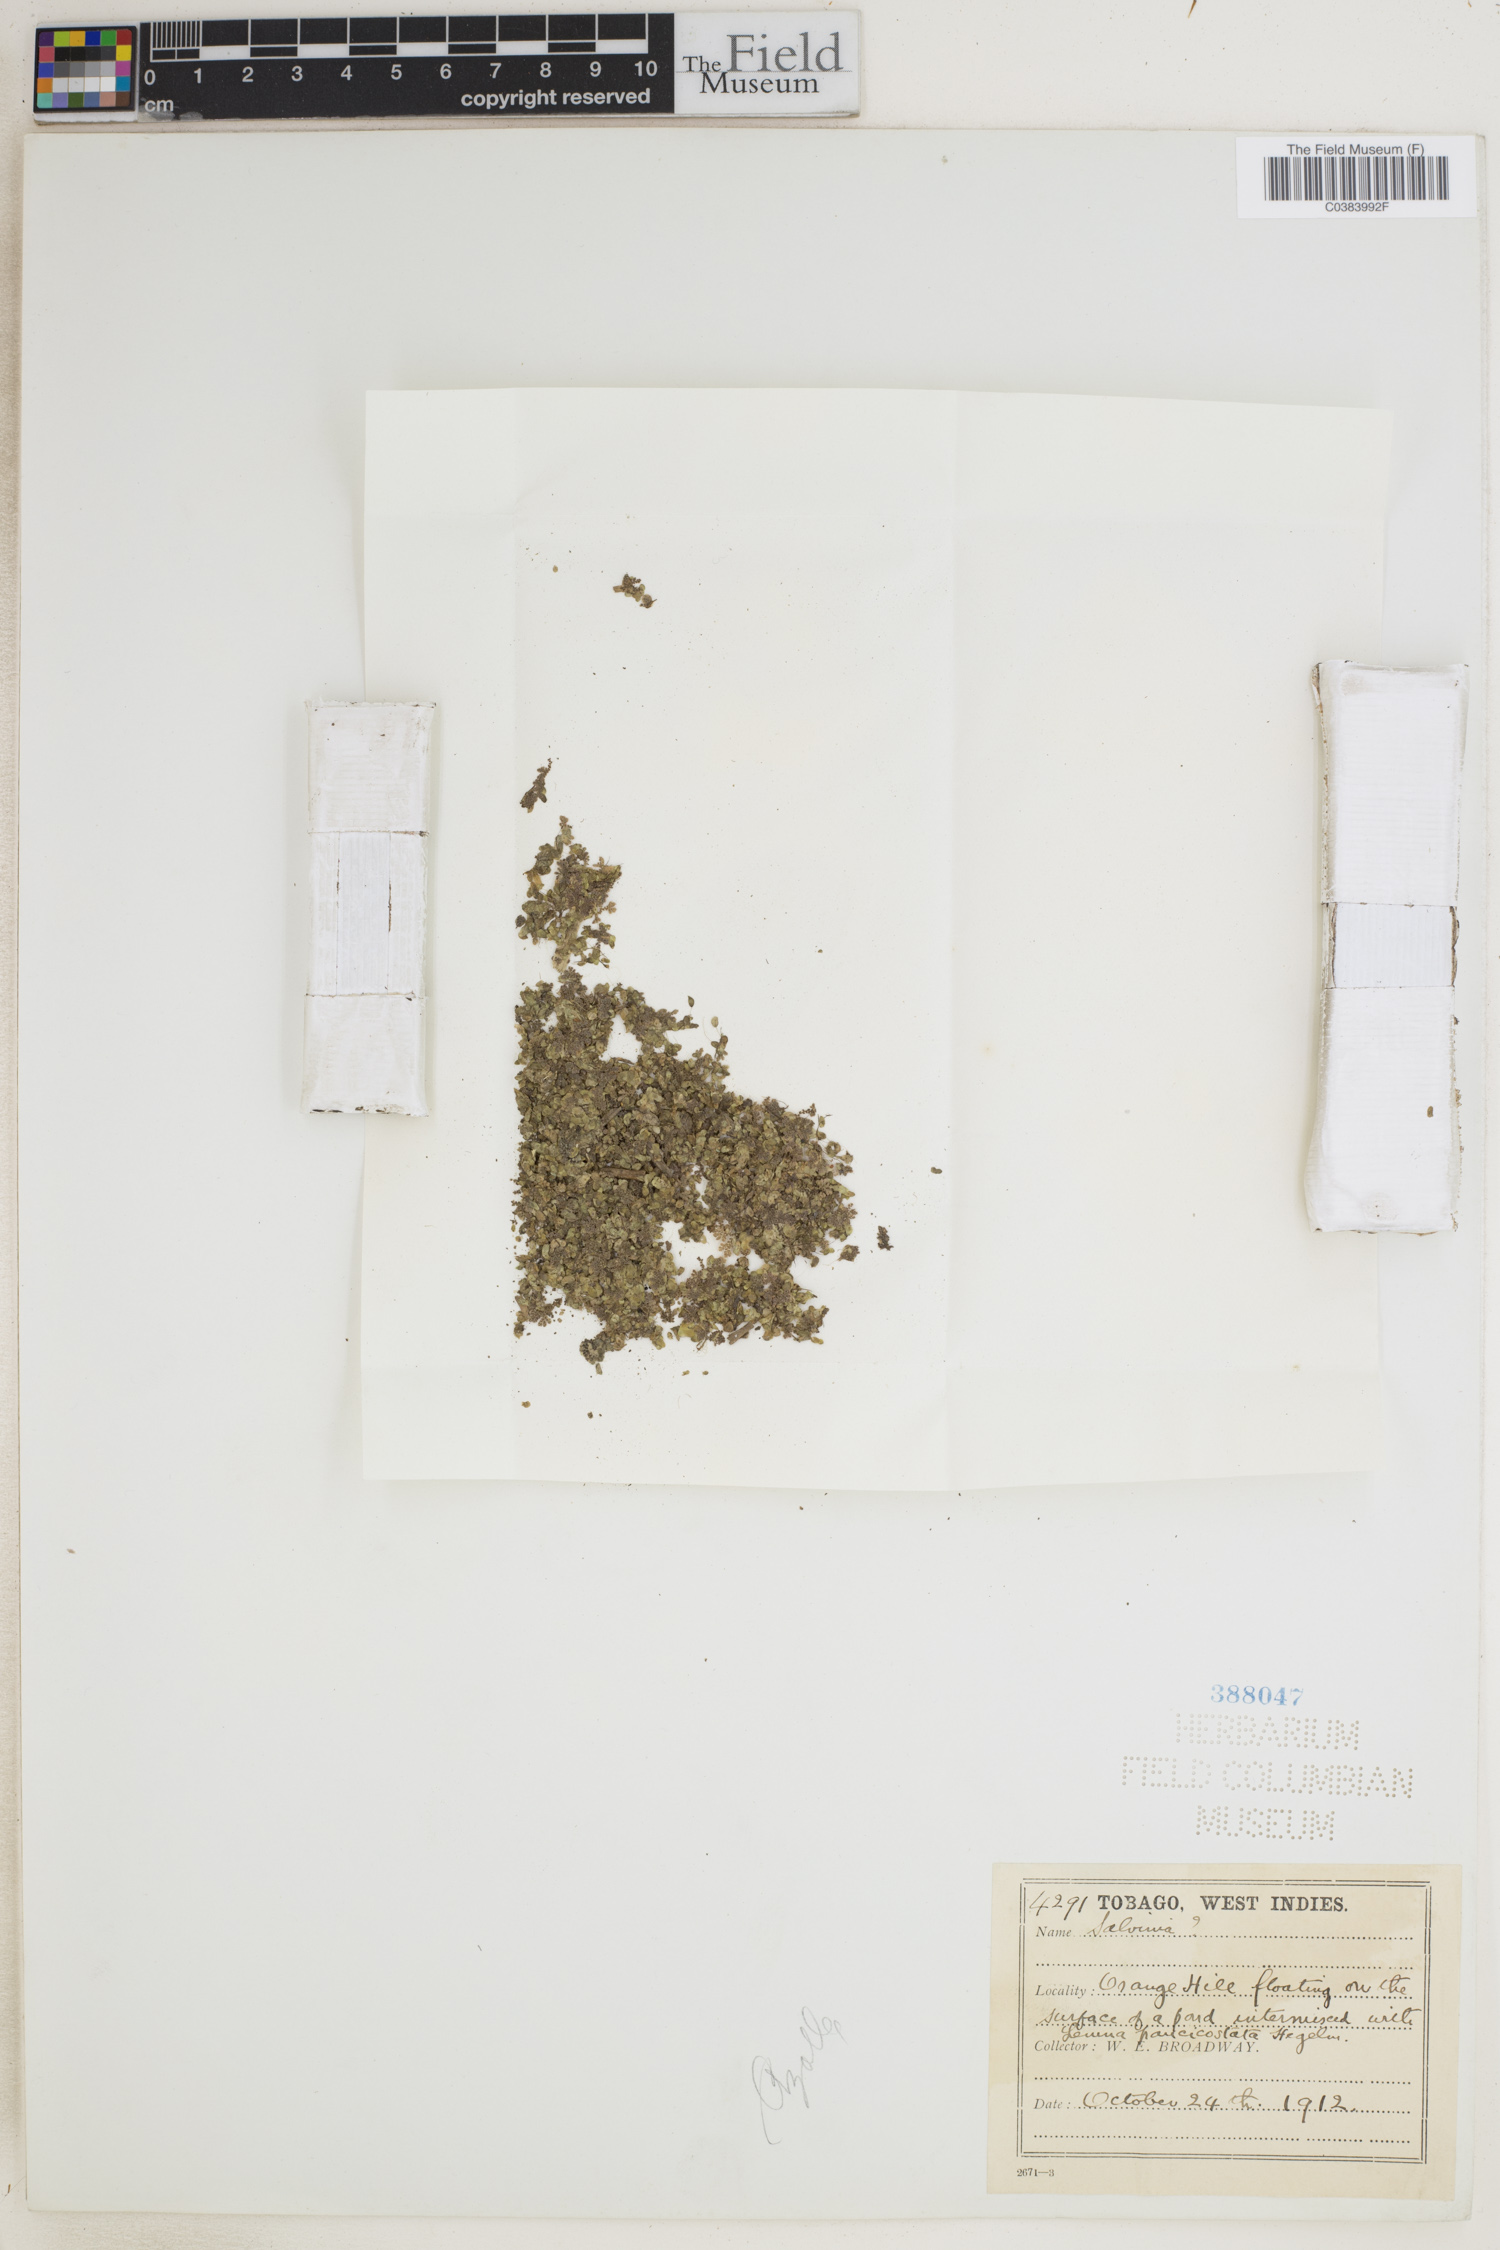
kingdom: Plantae
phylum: Tracheophyta
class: Polypodiopsida
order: Salviniales
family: Salviniaceae
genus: Azolla
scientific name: Azolla
